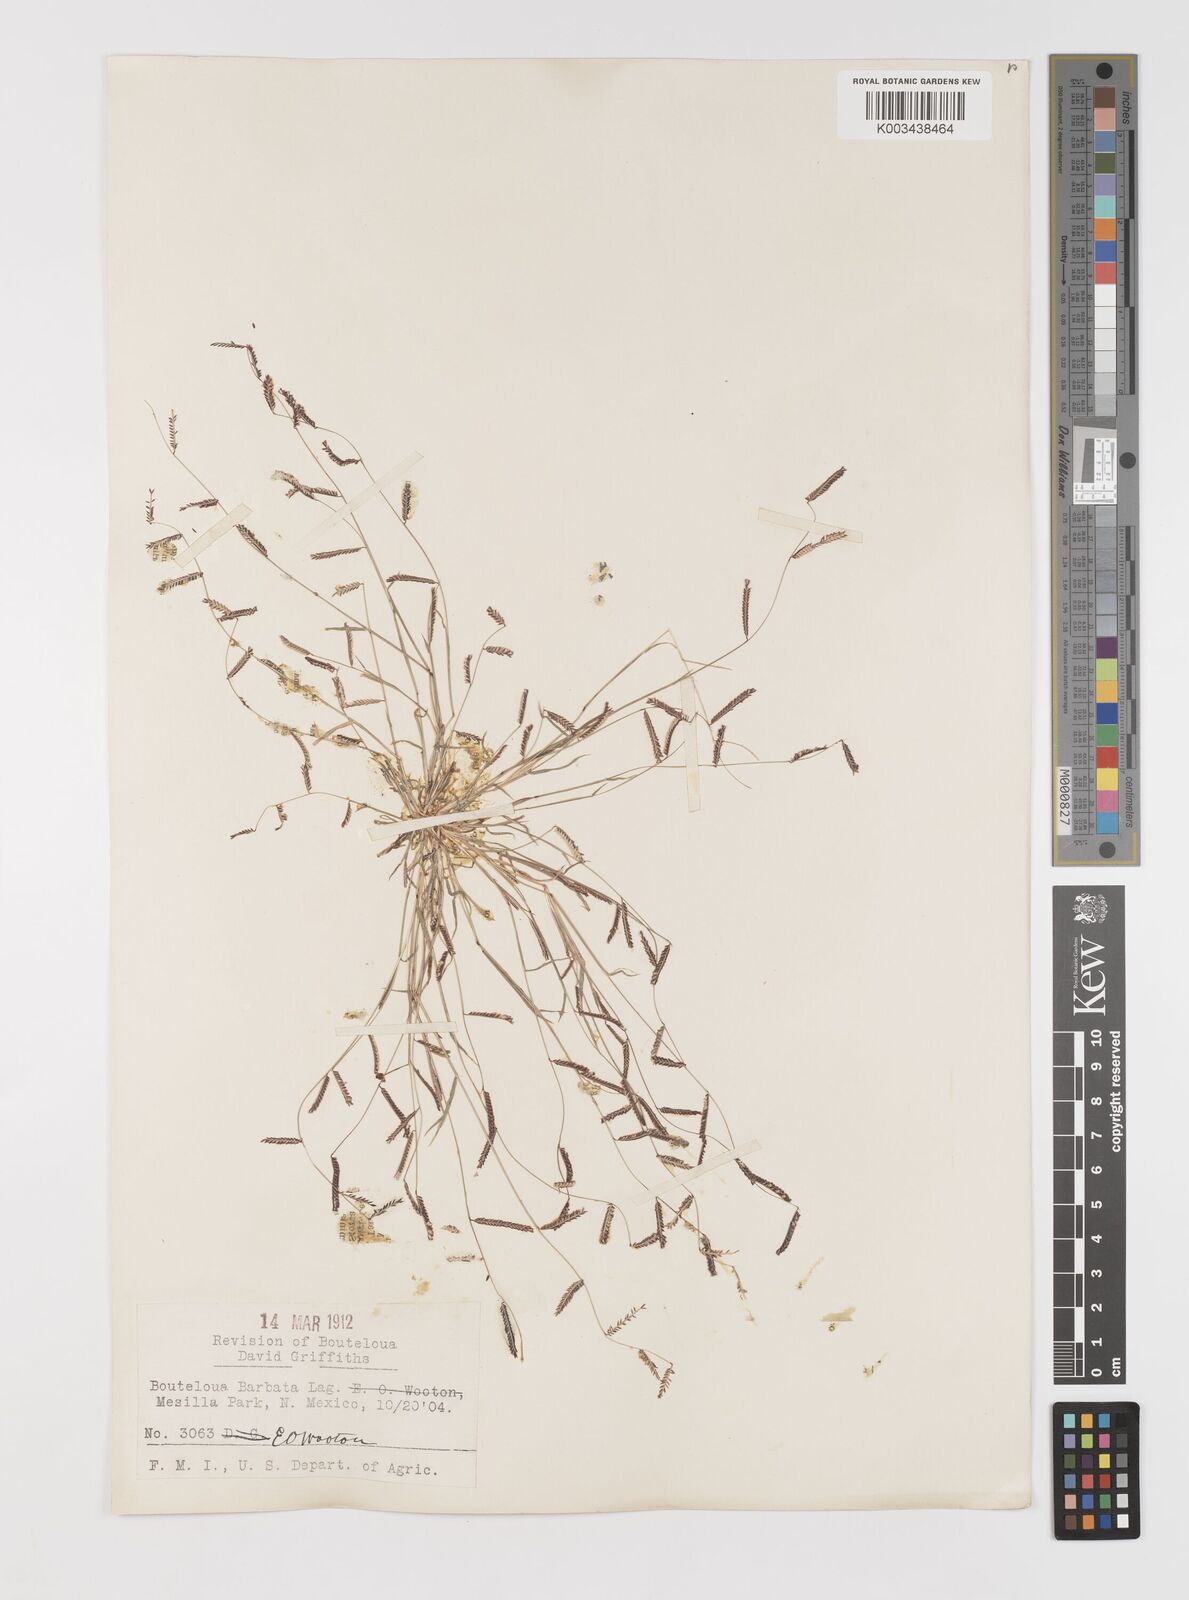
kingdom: Plantae
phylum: Tracheophyta
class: Liliopsida
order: Poales
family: Poaceae
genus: Bouteloua
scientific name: Bouteloua
